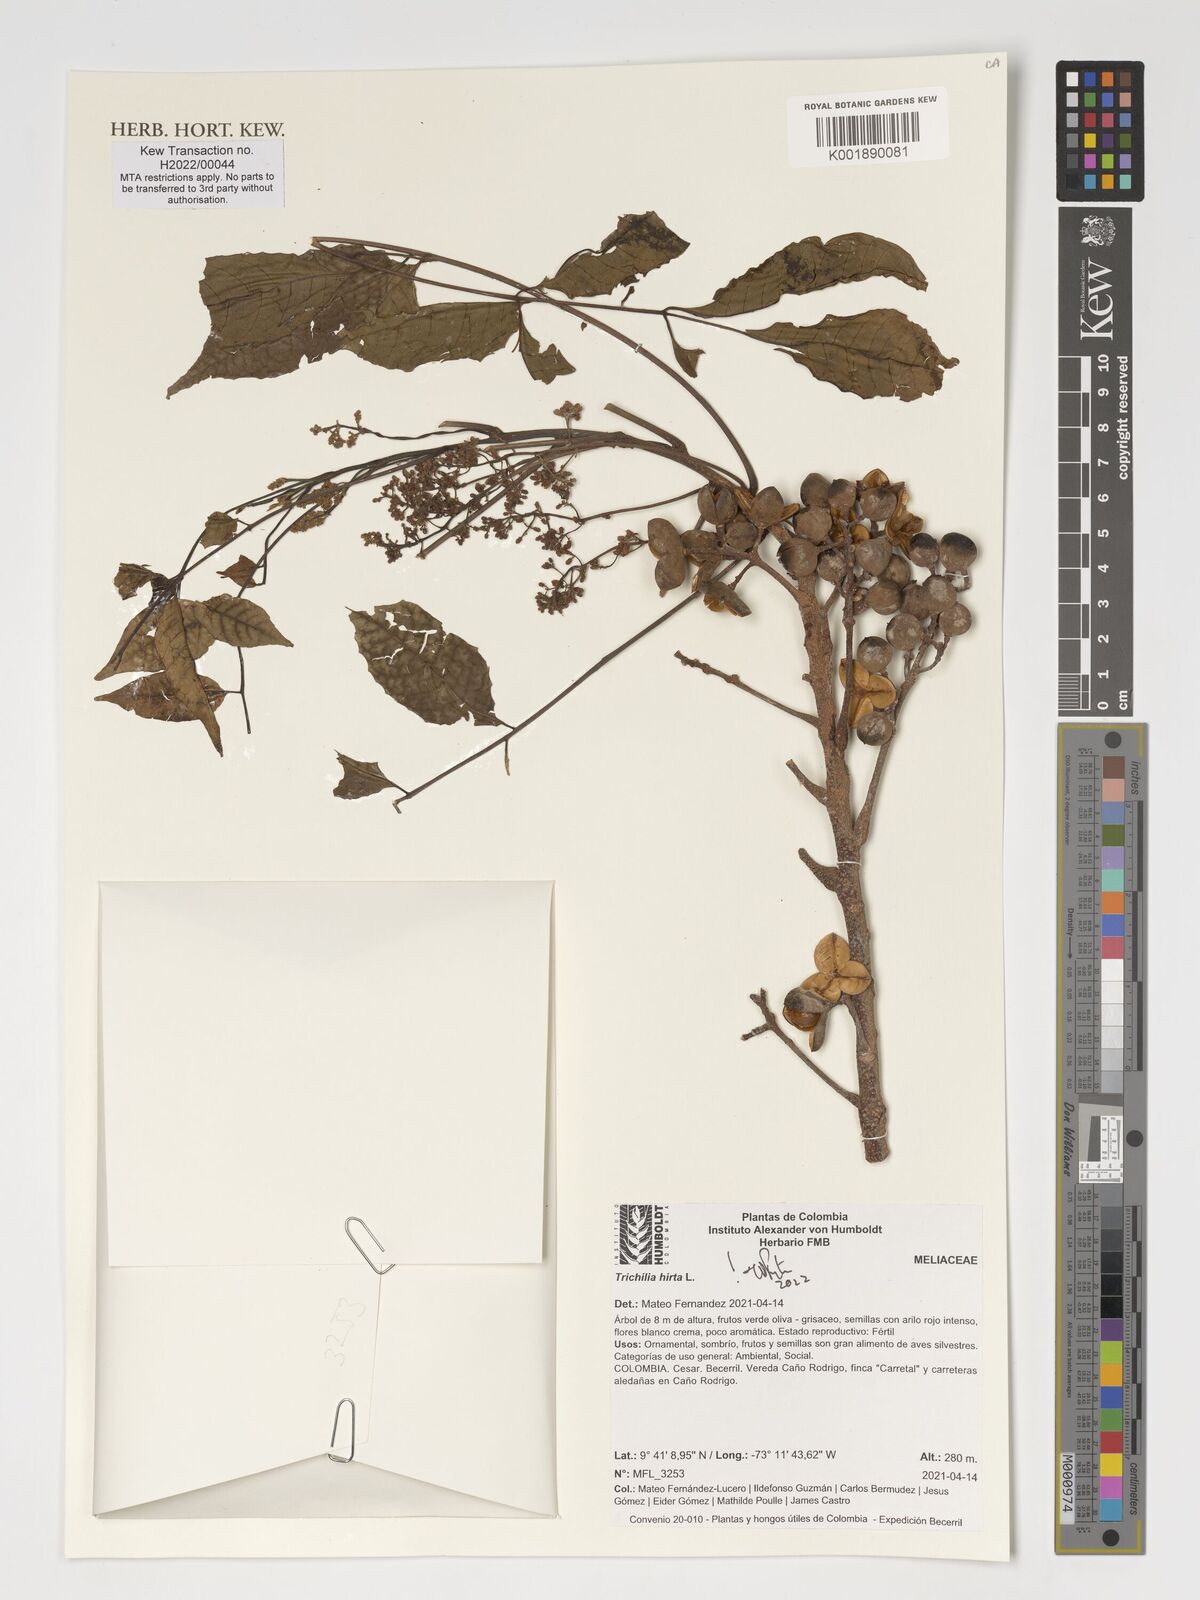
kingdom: Plantae
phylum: Tracheophyta
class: Magnoliopsida
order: Sapindales
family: Meliaceae
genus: Trichilia
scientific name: Trichilia hirta
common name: Red-cedar
